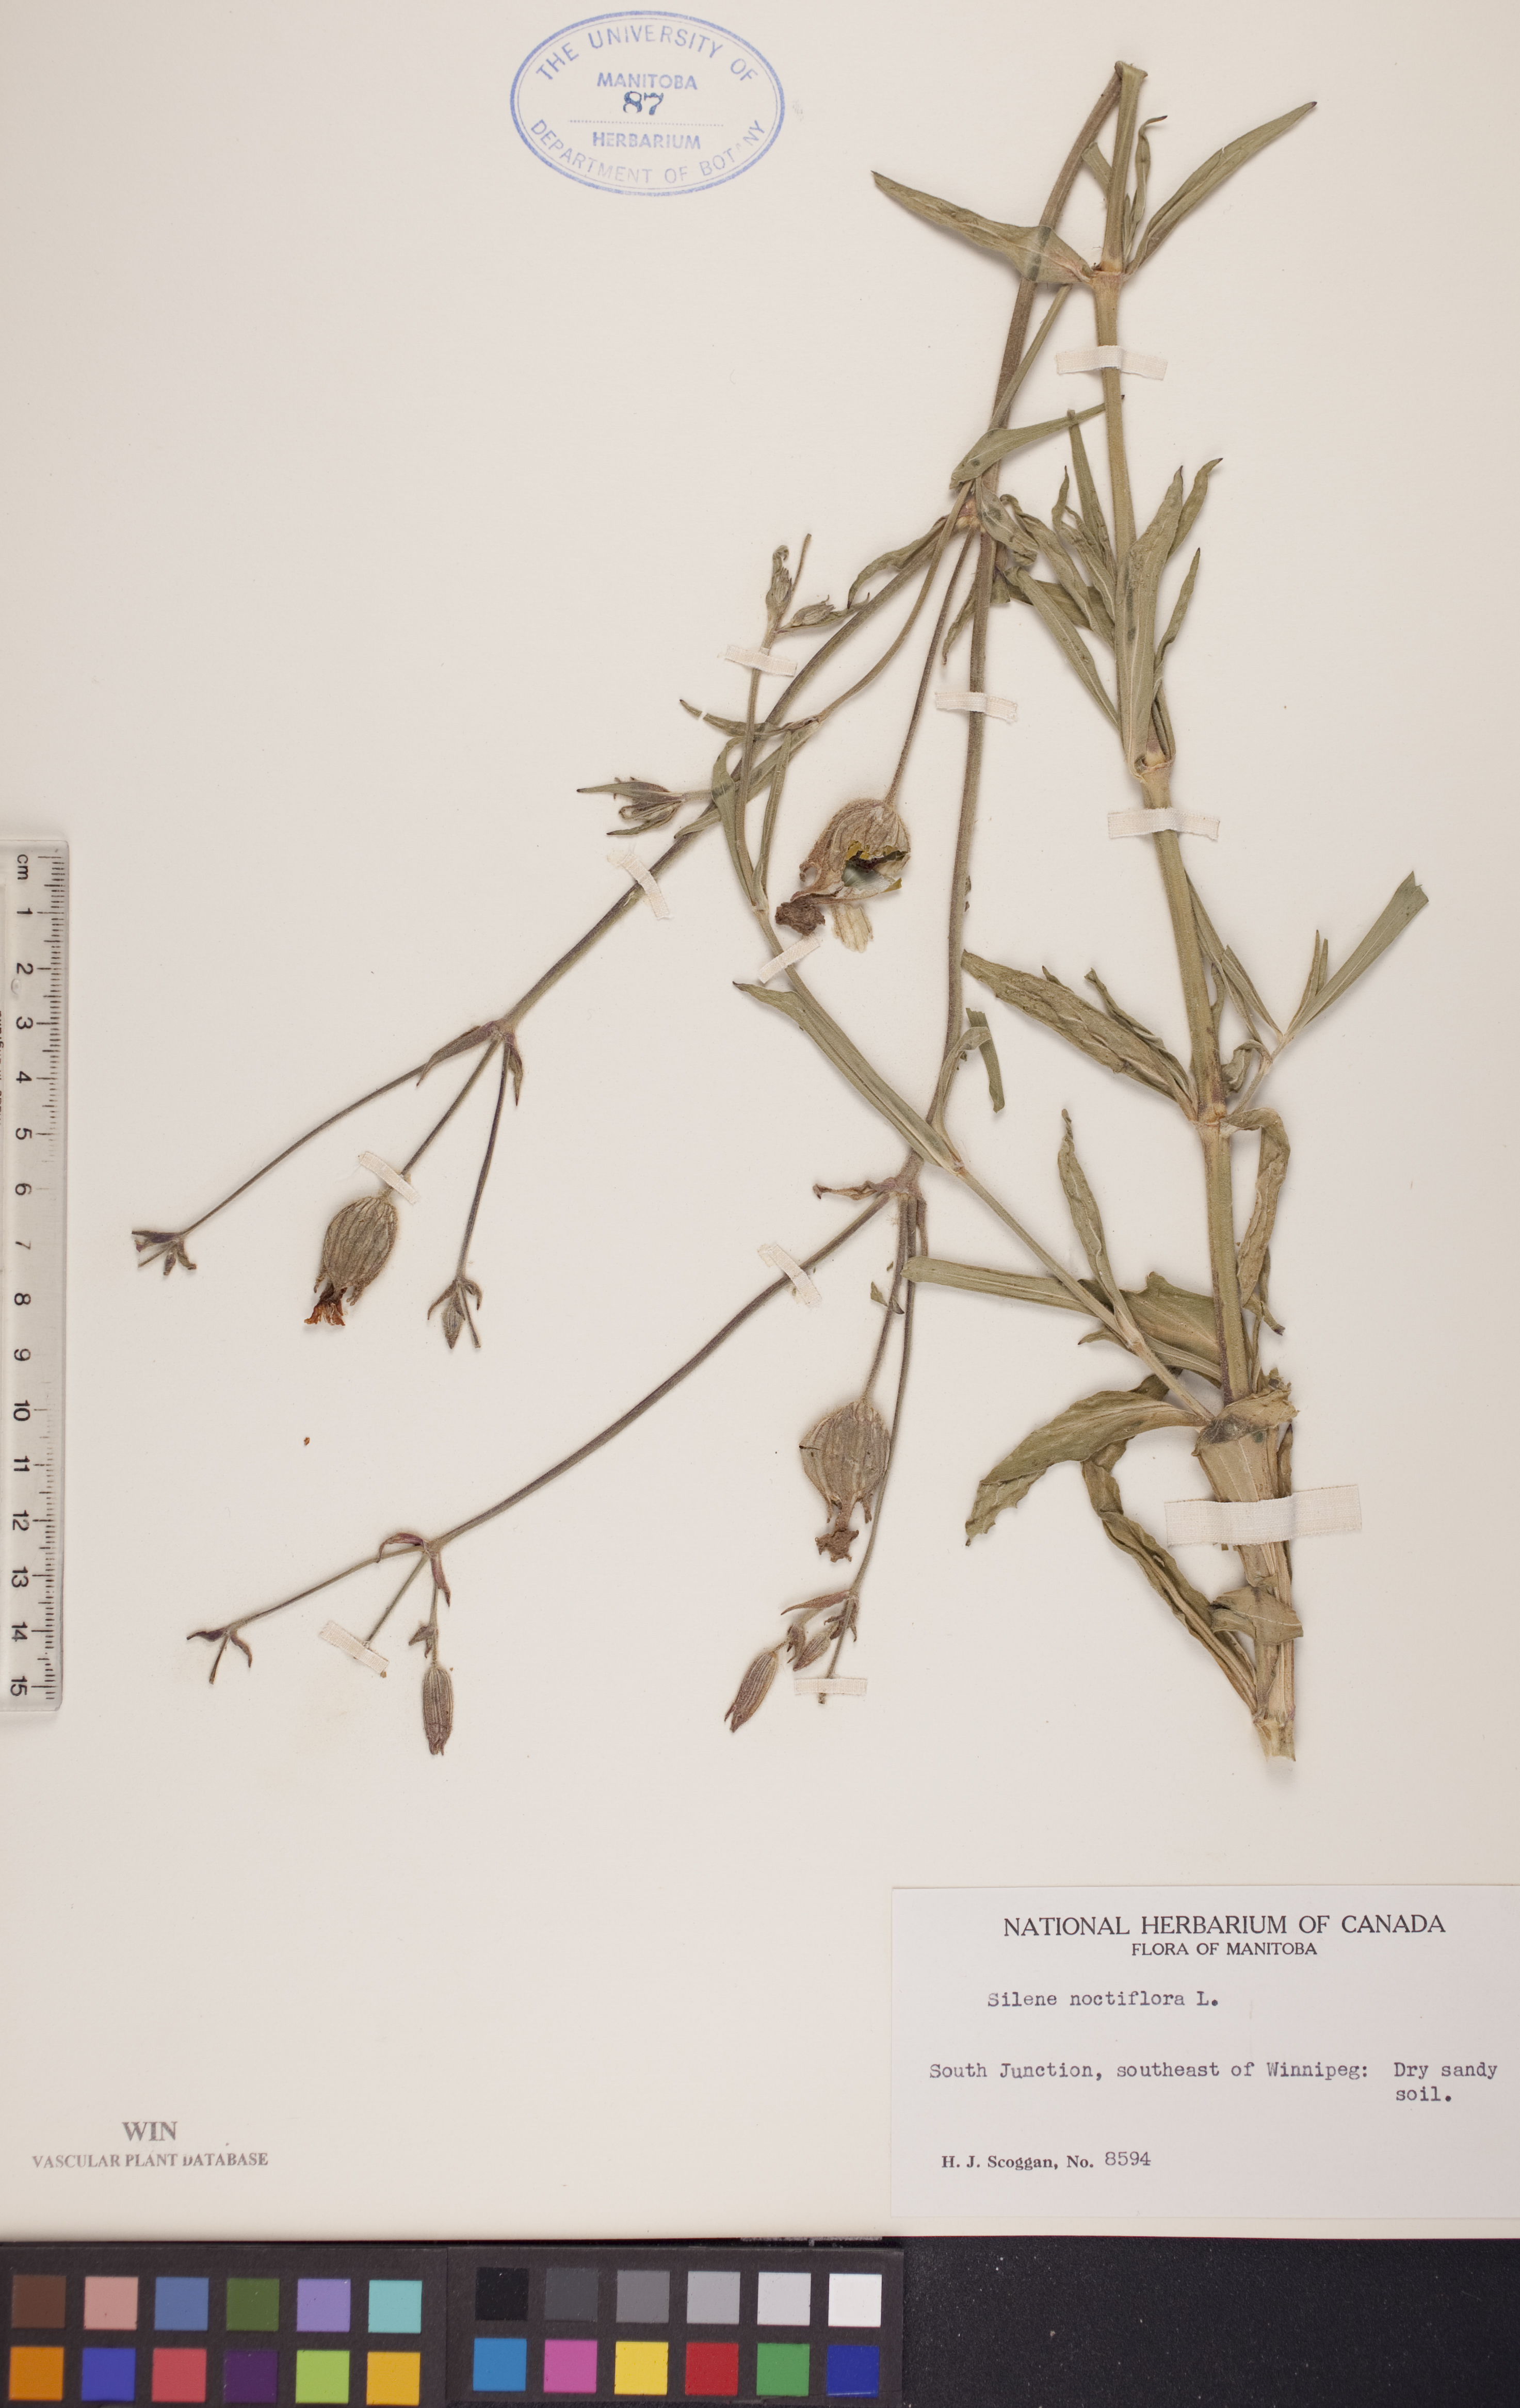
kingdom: Plantae
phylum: Tracheophyta
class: Magnoliopsida
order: Caryophyllales
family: Caryophyllaceae
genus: Silene
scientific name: Silene noctiflora
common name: Night-flowering catchfly
